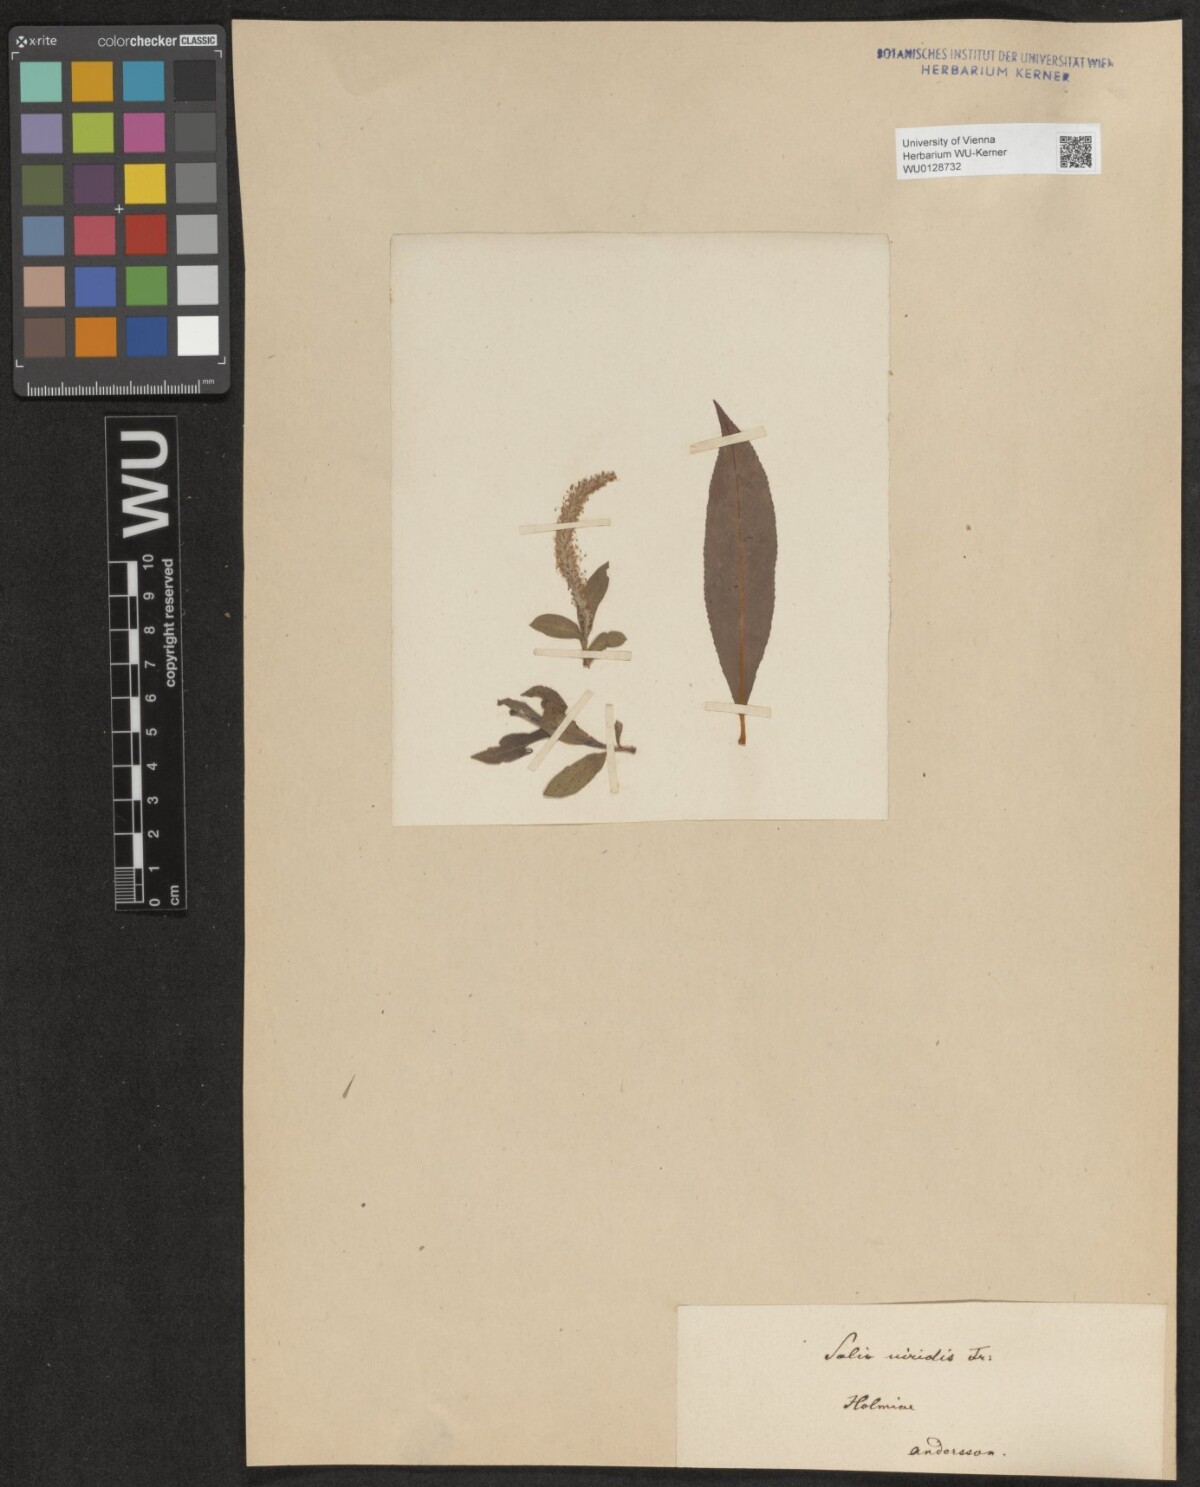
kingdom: Plantae
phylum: Tracheophyta
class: Magnoliopsida
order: Malpighiales
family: Salicaceae
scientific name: Salicaceae
